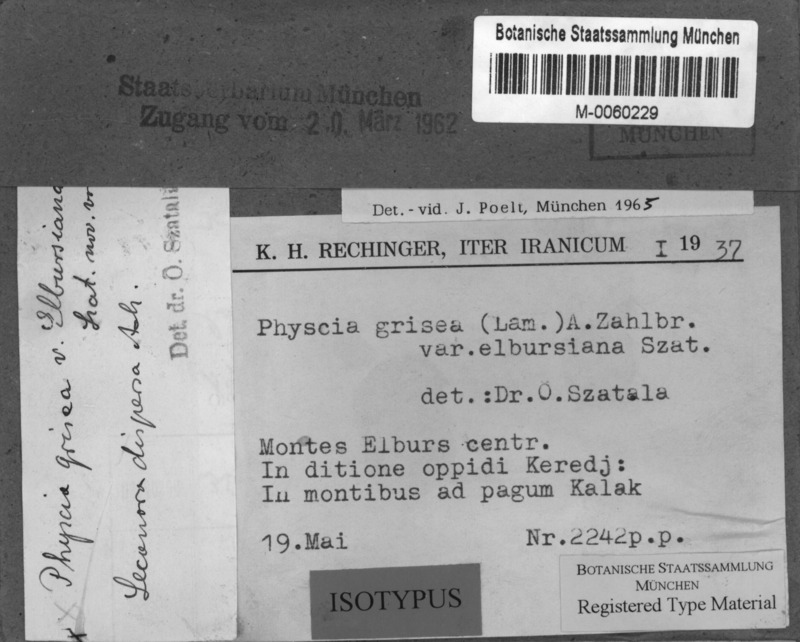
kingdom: Fungi
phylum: Ascomycota
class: Lecanoromycetes
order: Caliciales
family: Physciaceae
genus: Anaptychia
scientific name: Anaptychia elbursiana
